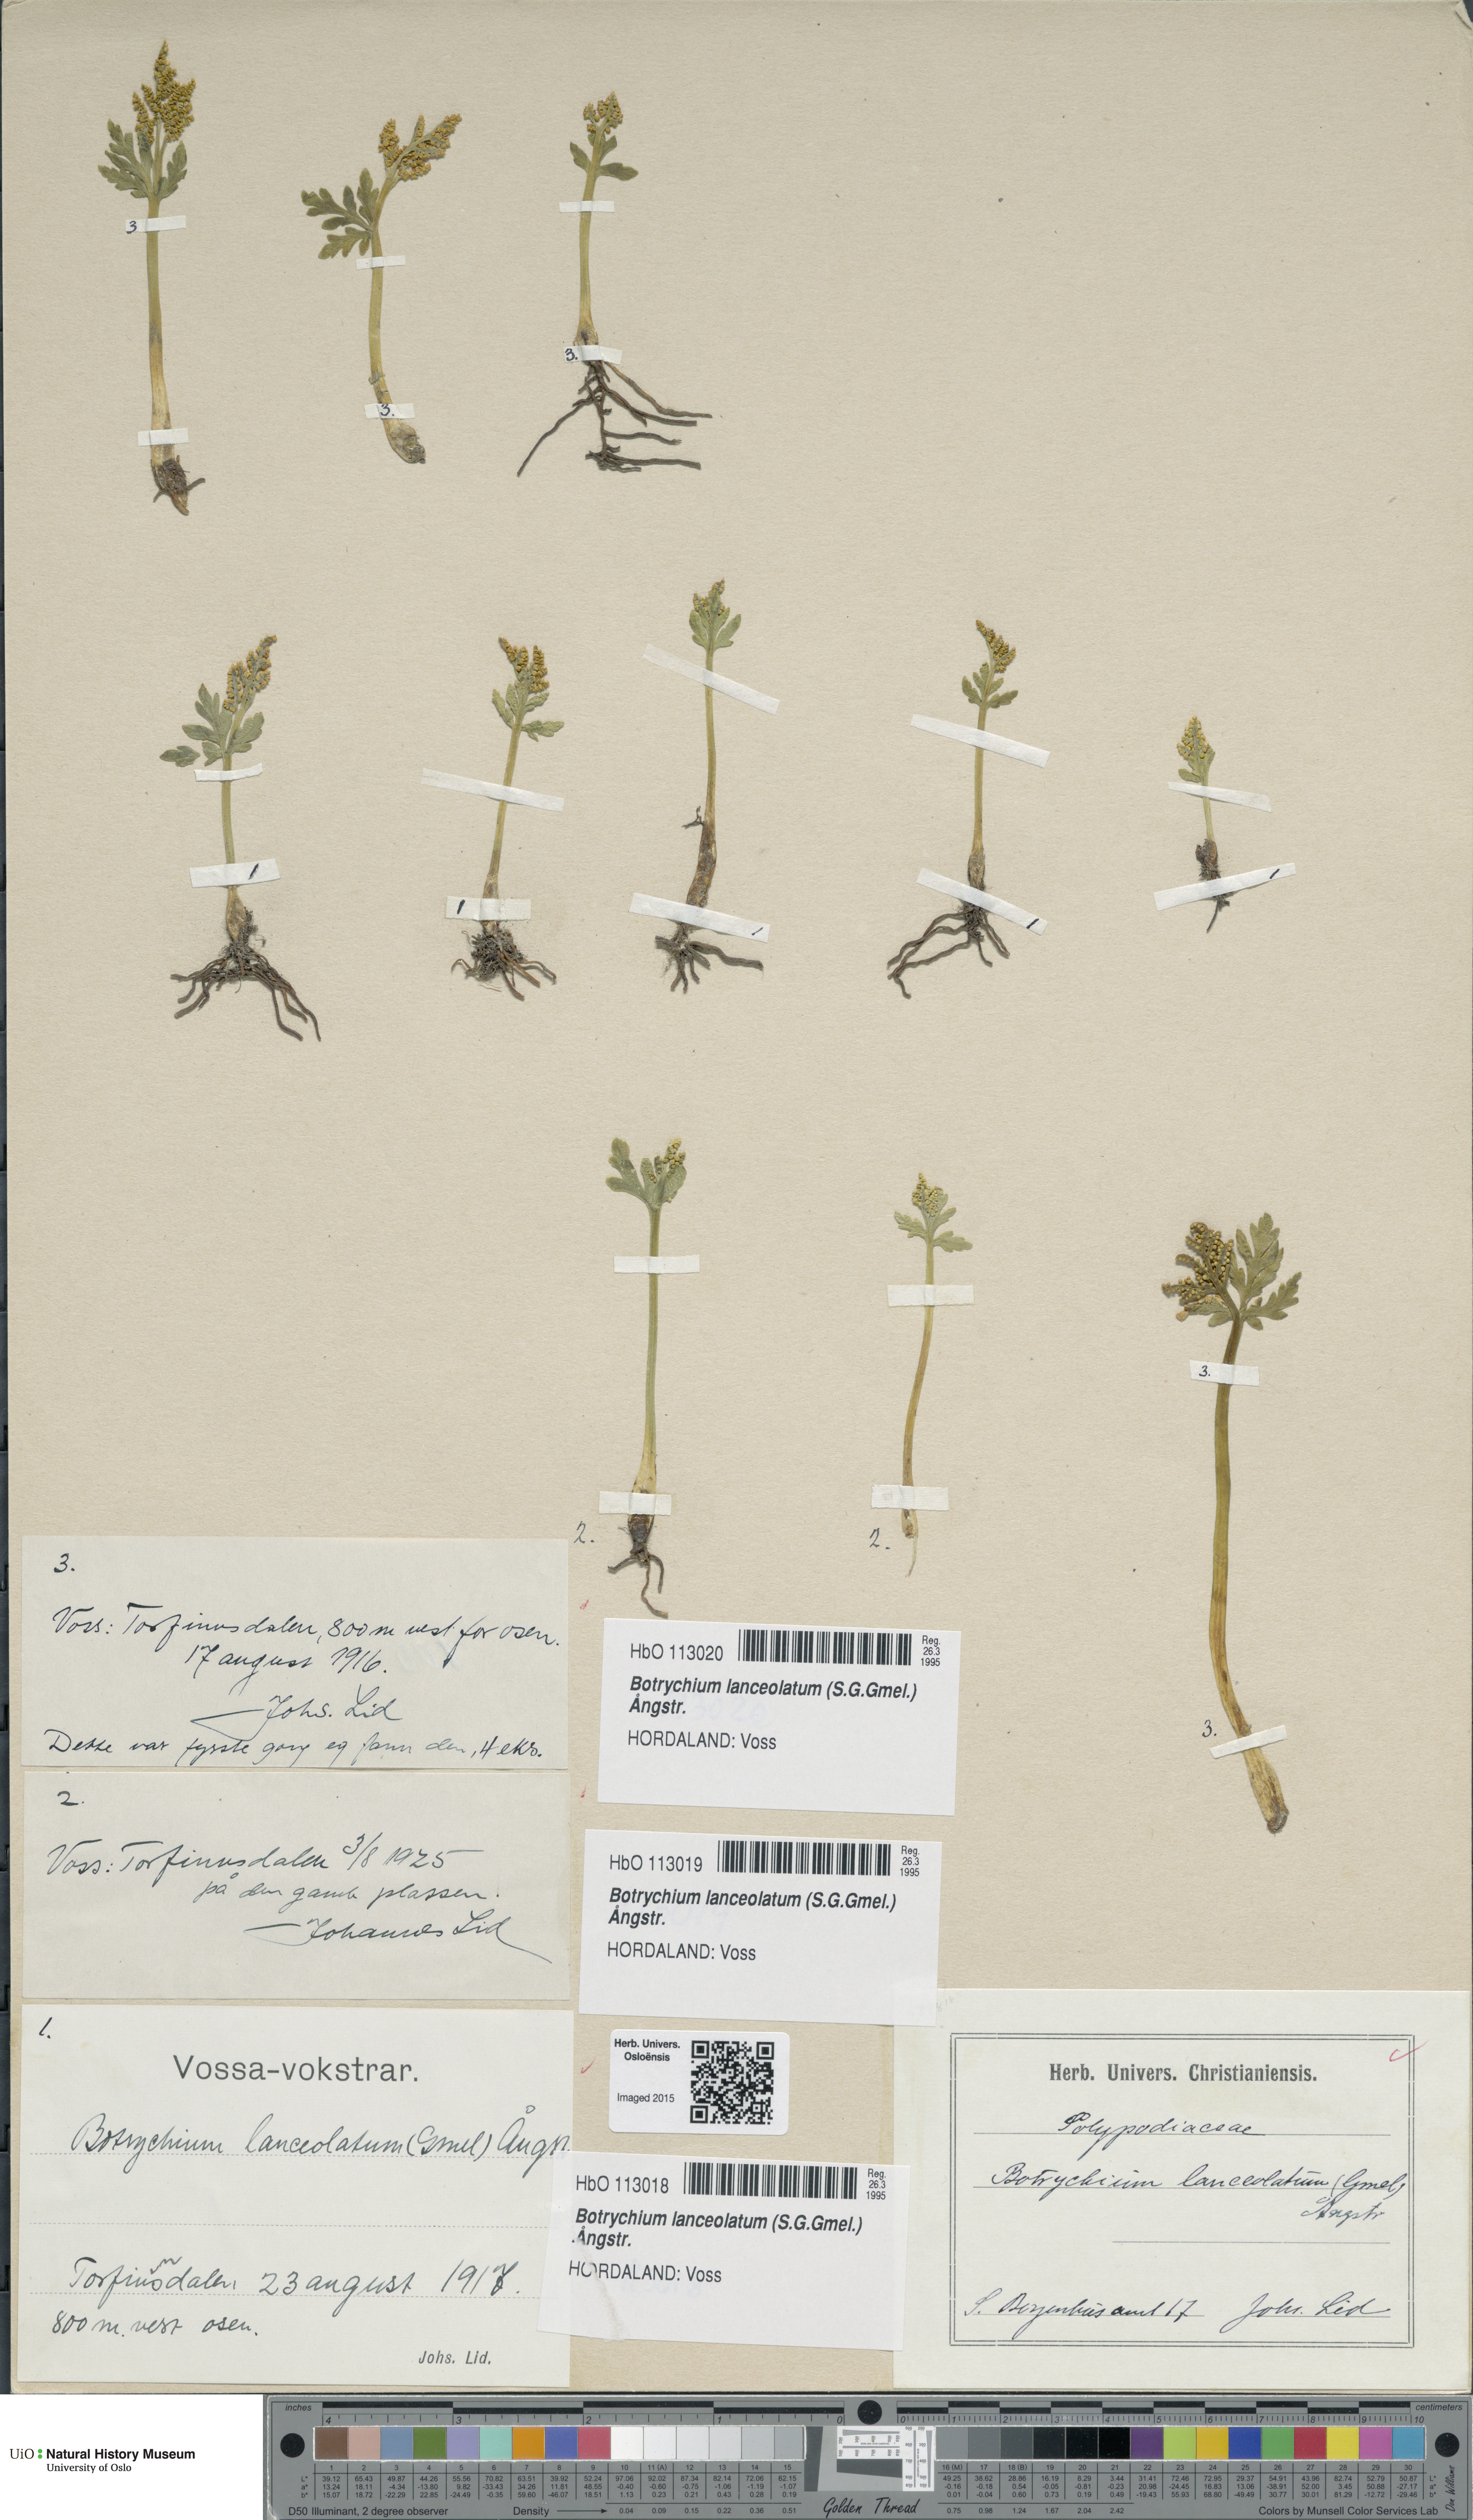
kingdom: Plantae
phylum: Tracheophyta
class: Polypodiopsida
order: Ophioglossales
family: Ophioglossaceae
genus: Botrychium
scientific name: Botrychium lanceolatum
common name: Lance-leaved moonwort
